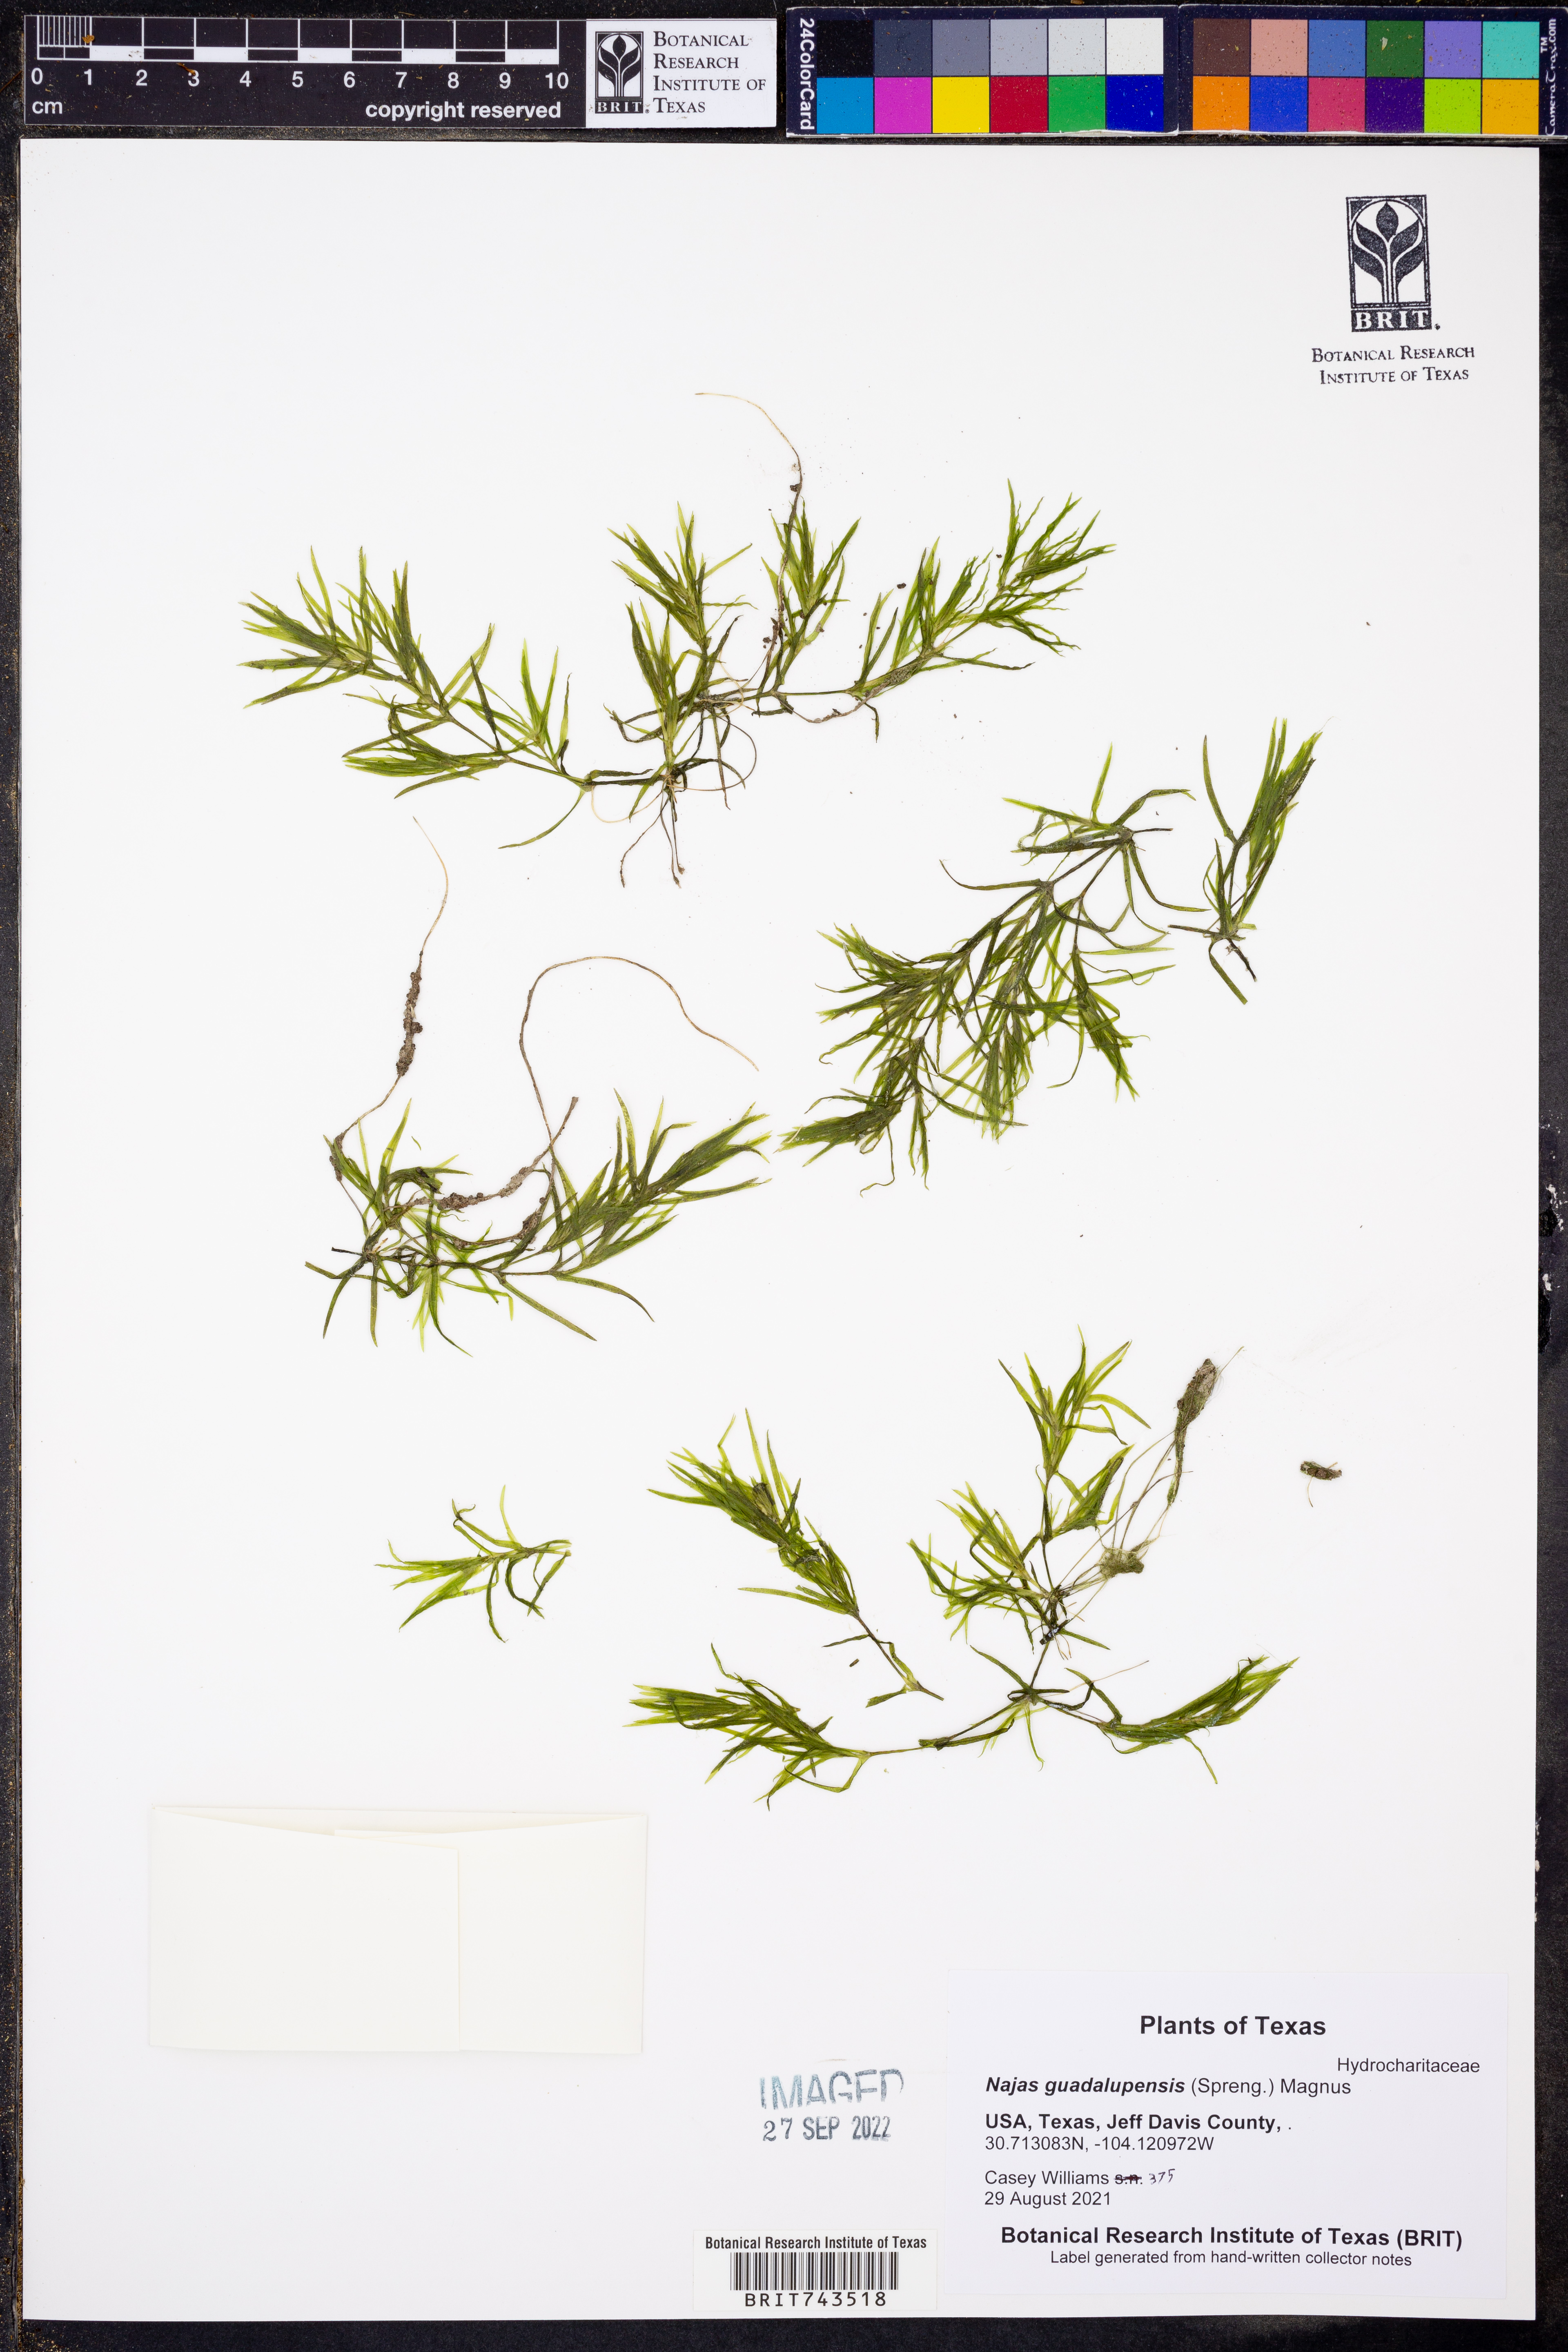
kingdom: Plantae
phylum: Tracheophyta
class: Liliopsida
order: Alismatales
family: Hydrocharitaceae
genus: Najas
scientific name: Najas guadalupensis
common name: Southern naiad
